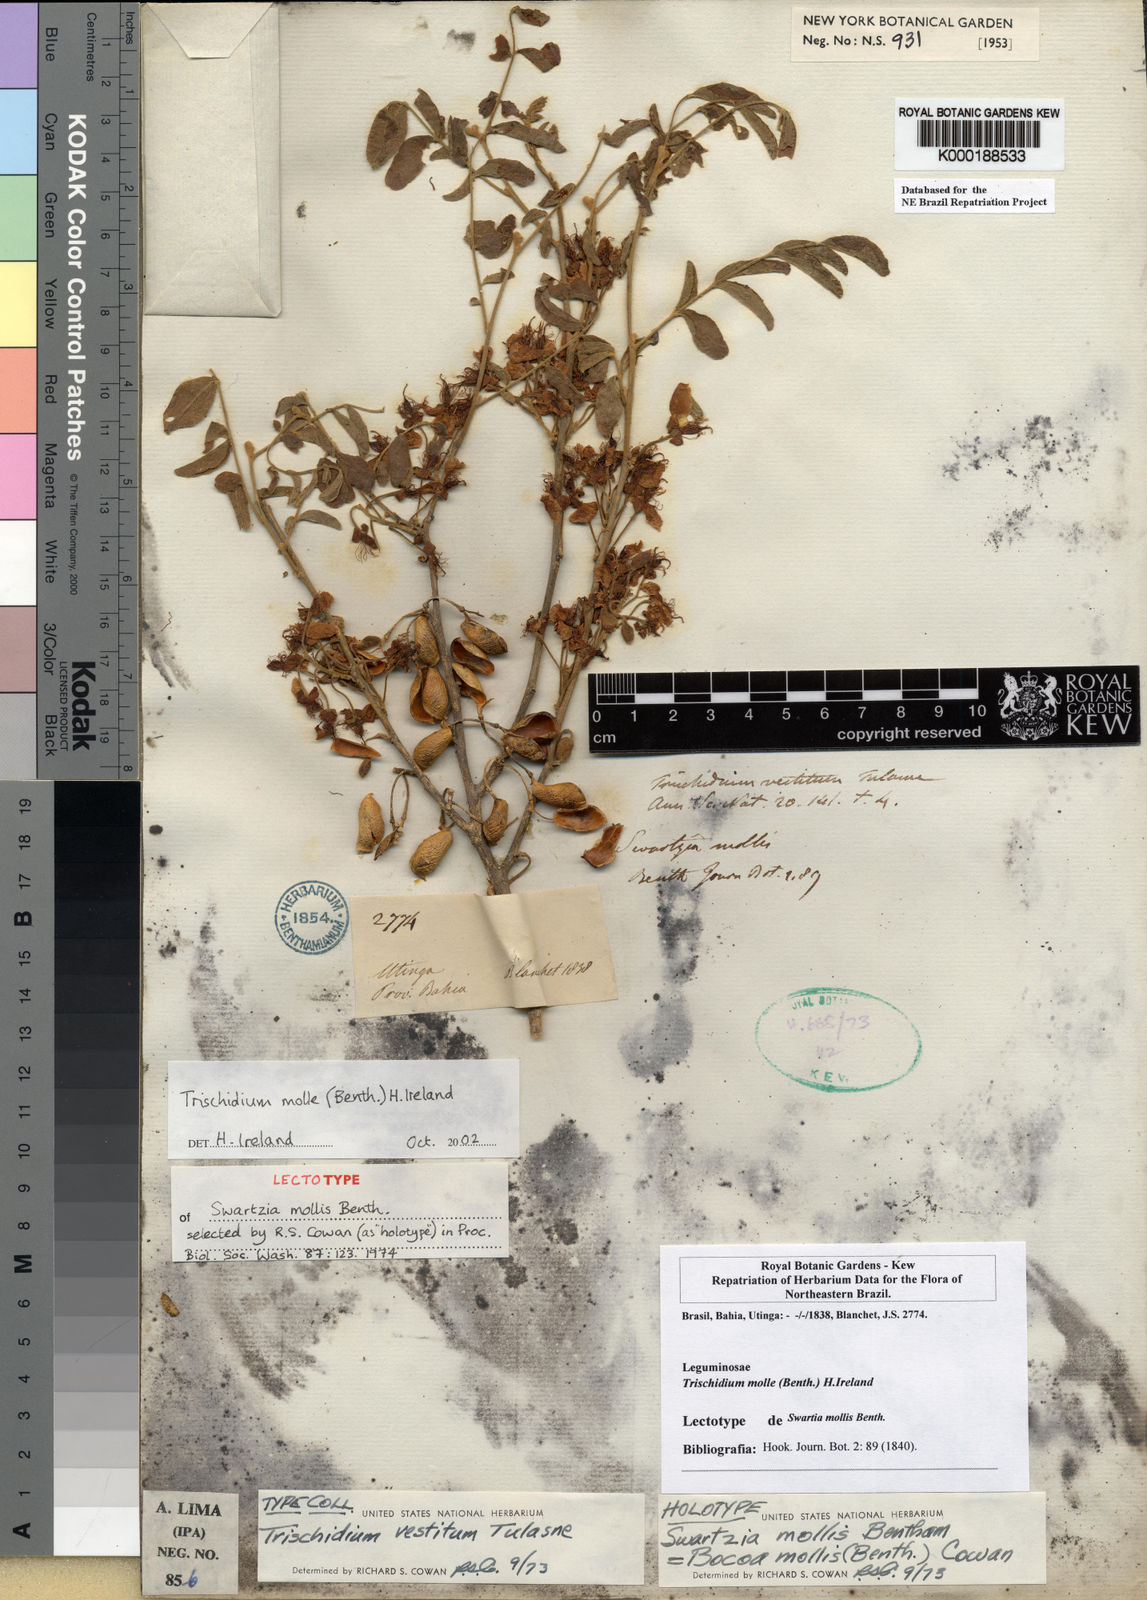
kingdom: Plantae
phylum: Tracheophyta
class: Magnoliopsida
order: Fabales
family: Fabaceae
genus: Trischidium
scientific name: Trischidium molle
